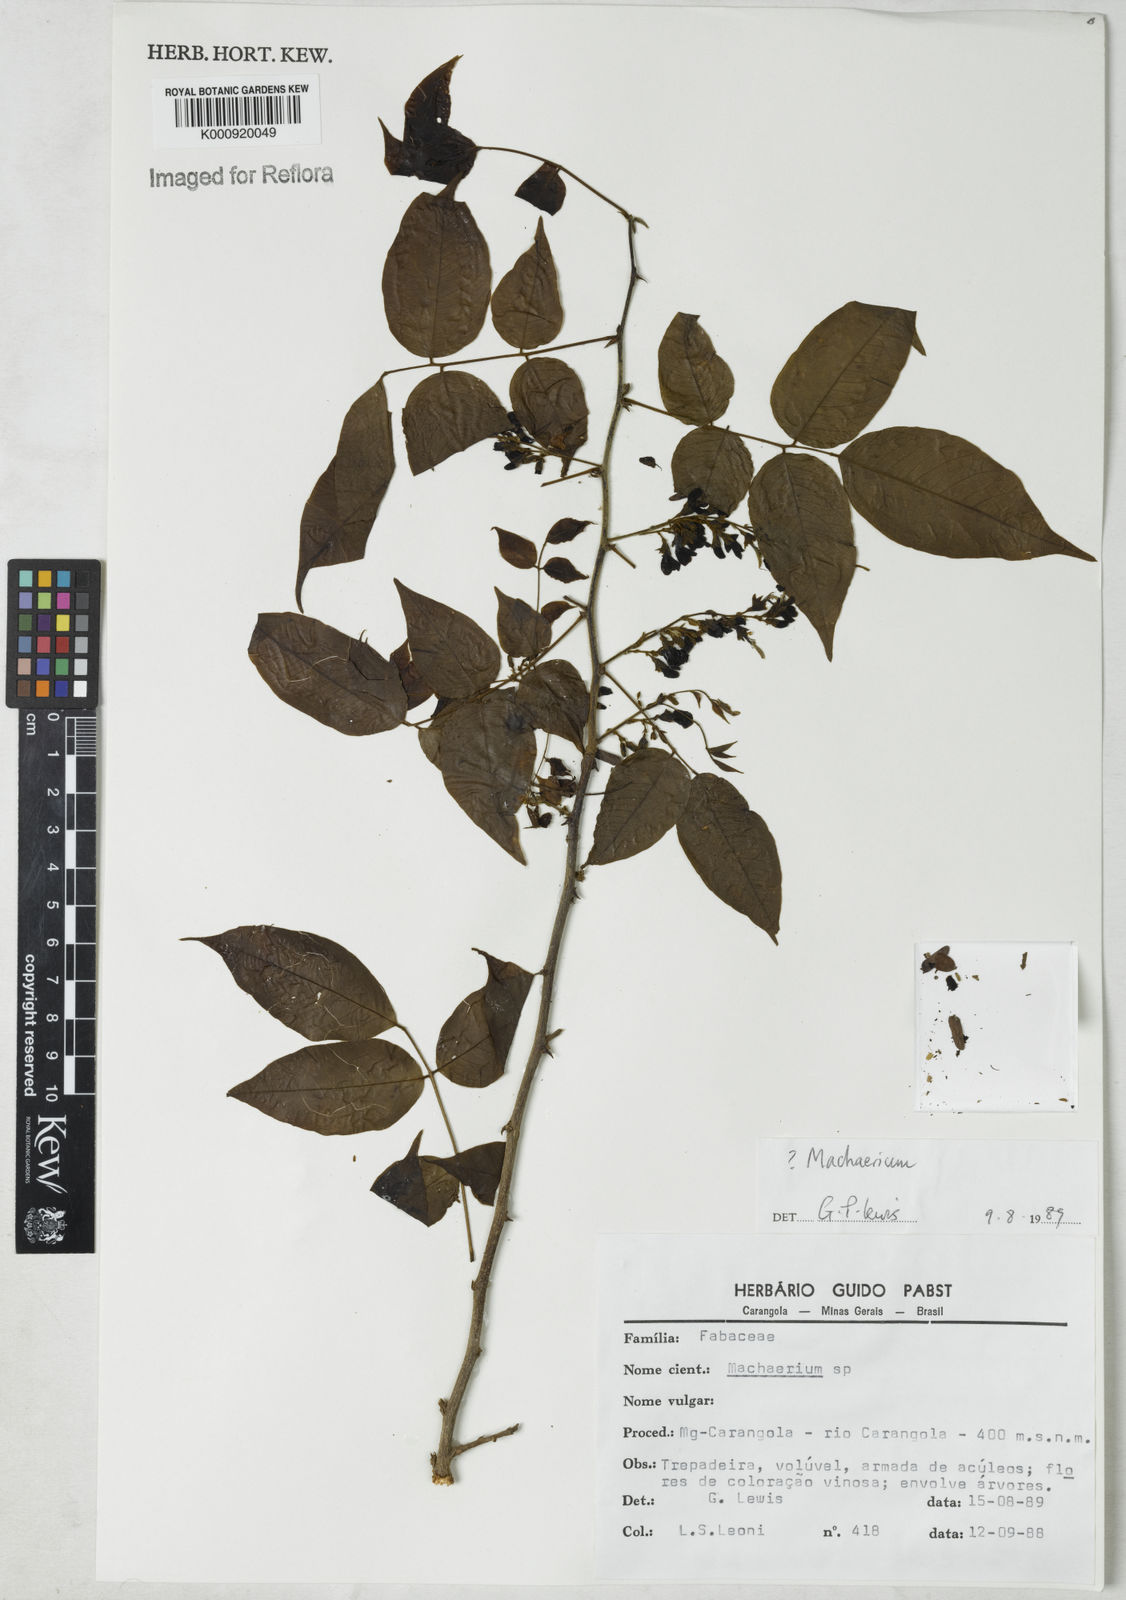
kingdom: Plantae
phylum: Tracheophyta
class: Magnoliopsida
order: Fabales
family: Fabaceae
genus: Machaerium
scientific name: Machaerium
